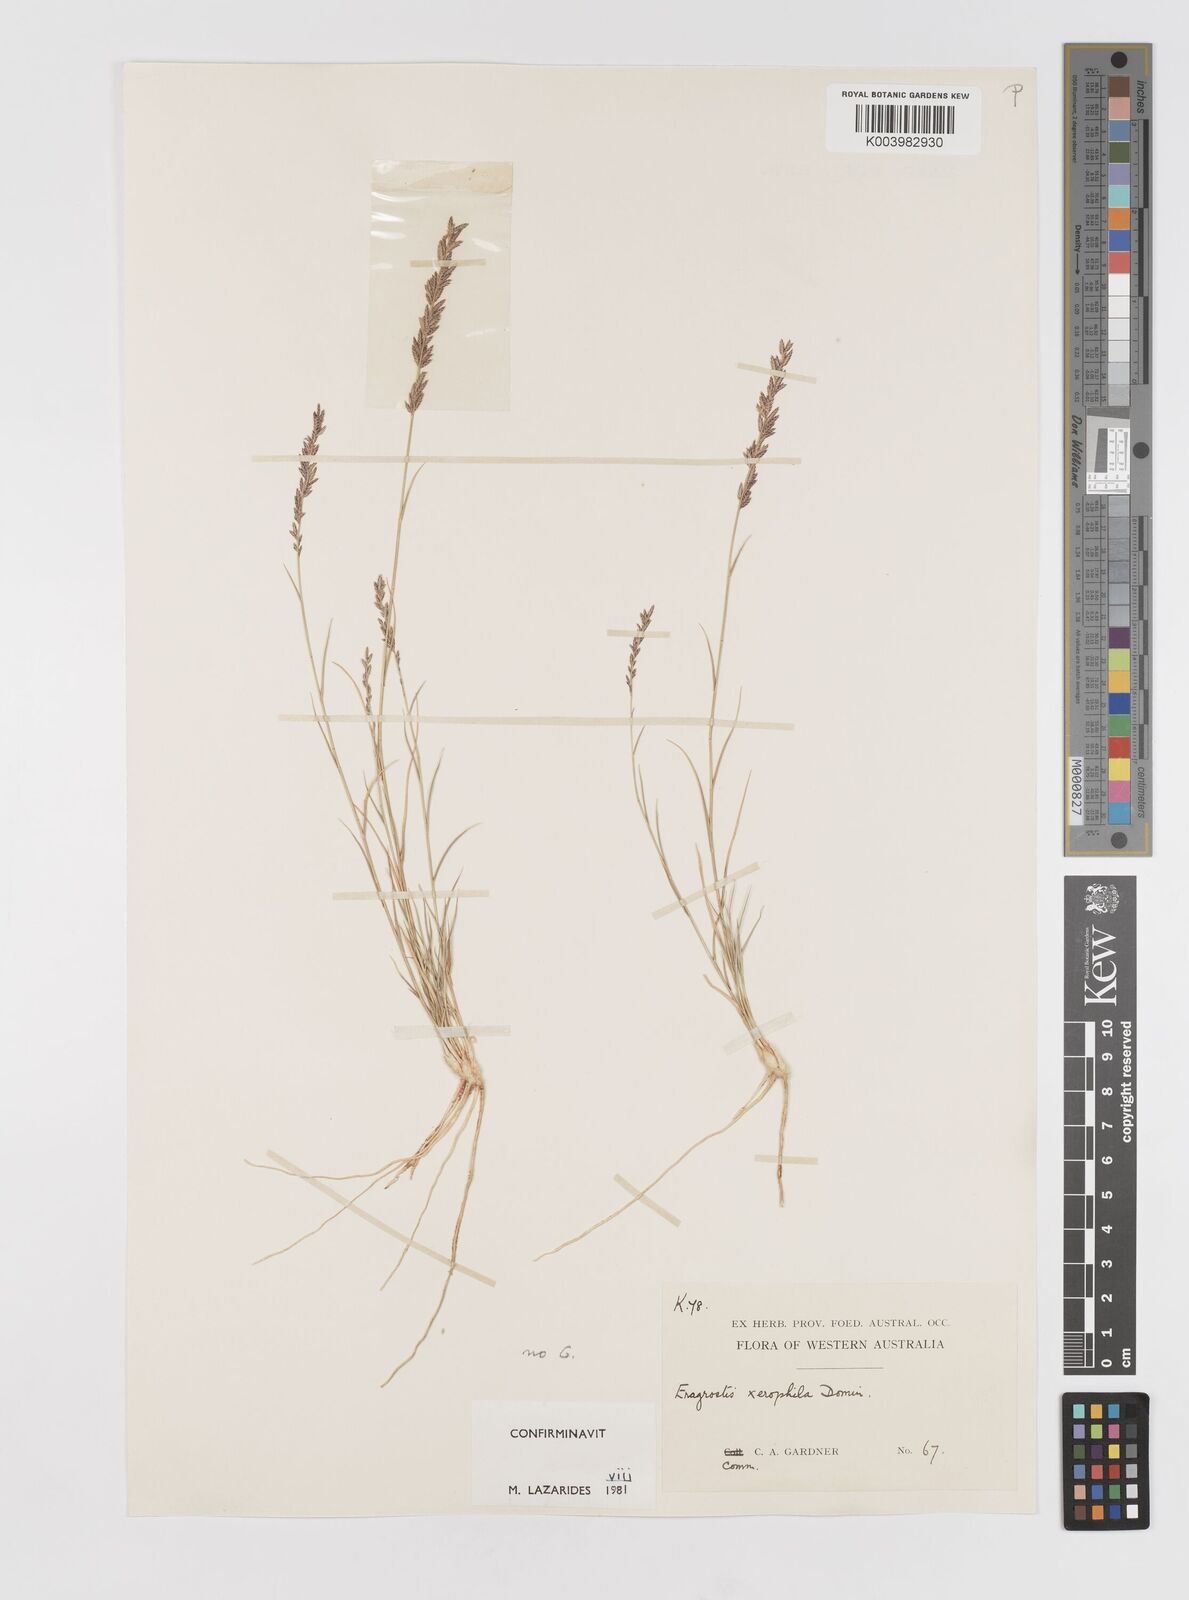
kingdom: Plantae
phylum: Tracheophyta
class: Liliopsida
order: Poales
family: Poaceae
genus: Eragrostis
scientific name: Eragrostis xerophila
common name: Wire wandarrie grass
